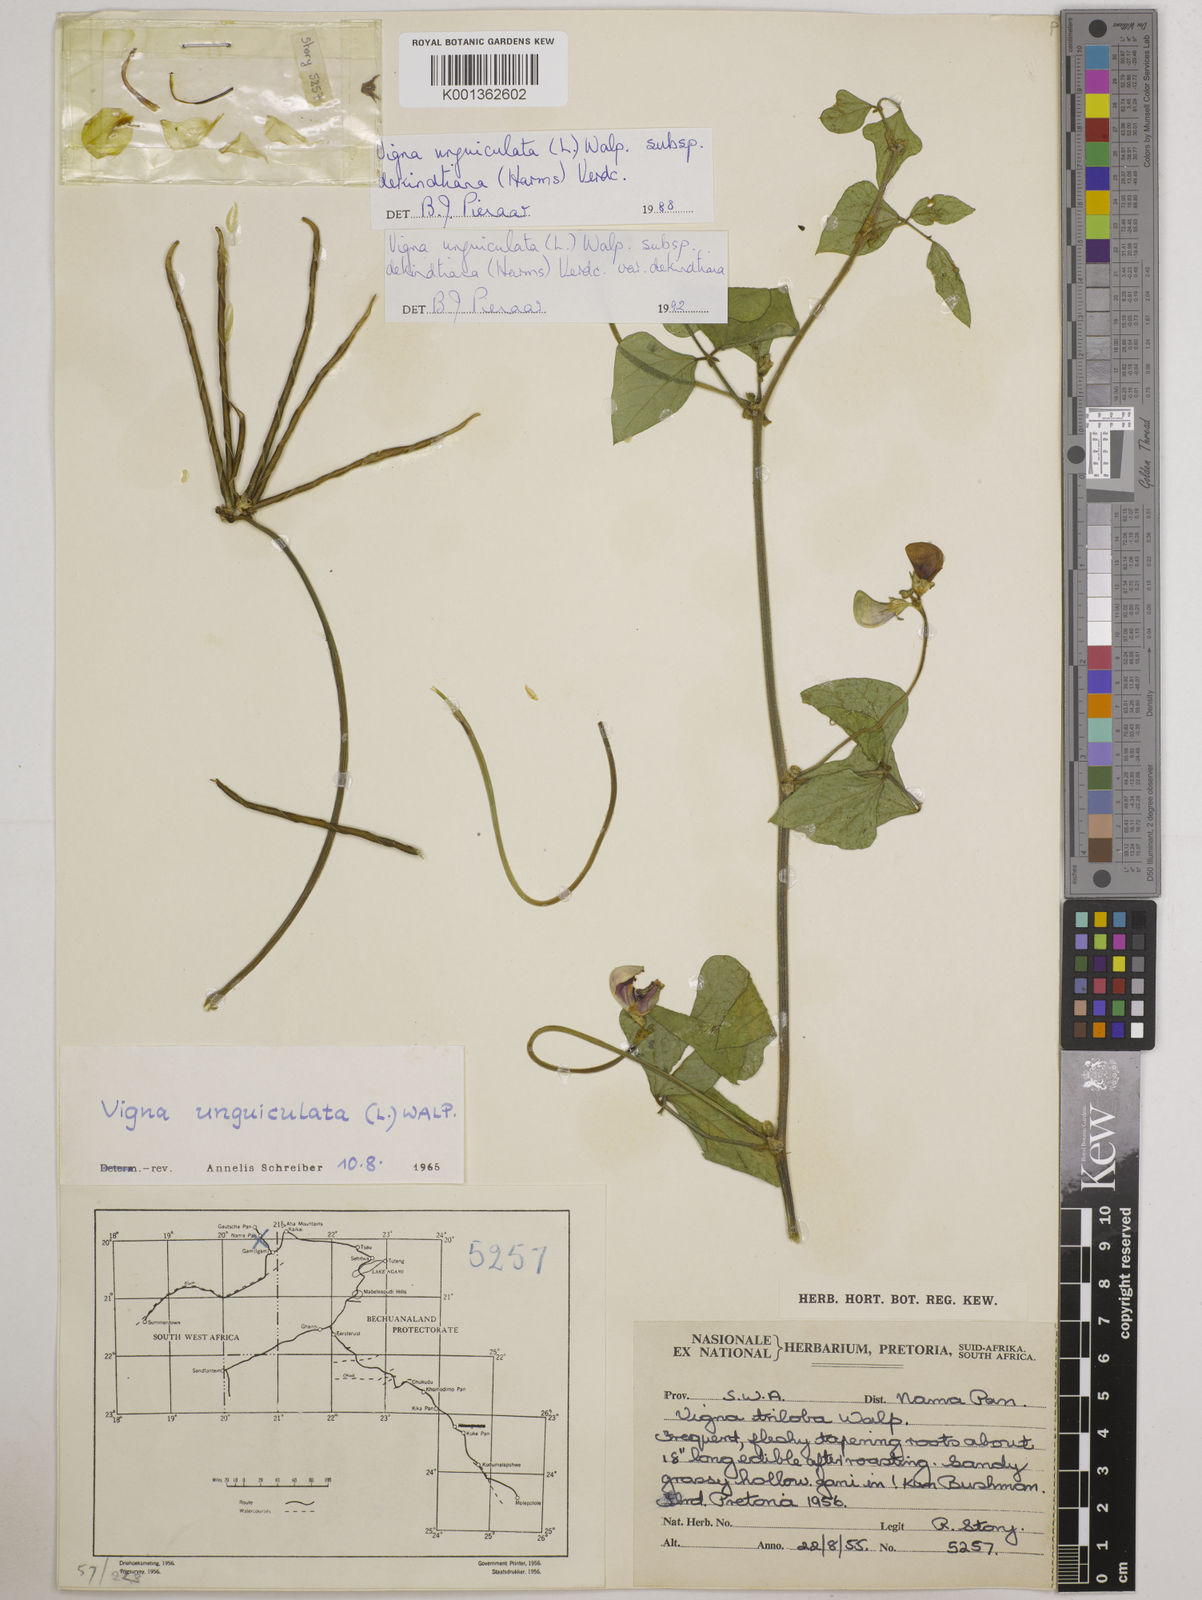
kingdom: Plantae
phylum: Tracheophyta
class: Magnoliopsida
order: Fabales
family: Fabaceae
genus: Vigna
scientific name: Vigna
